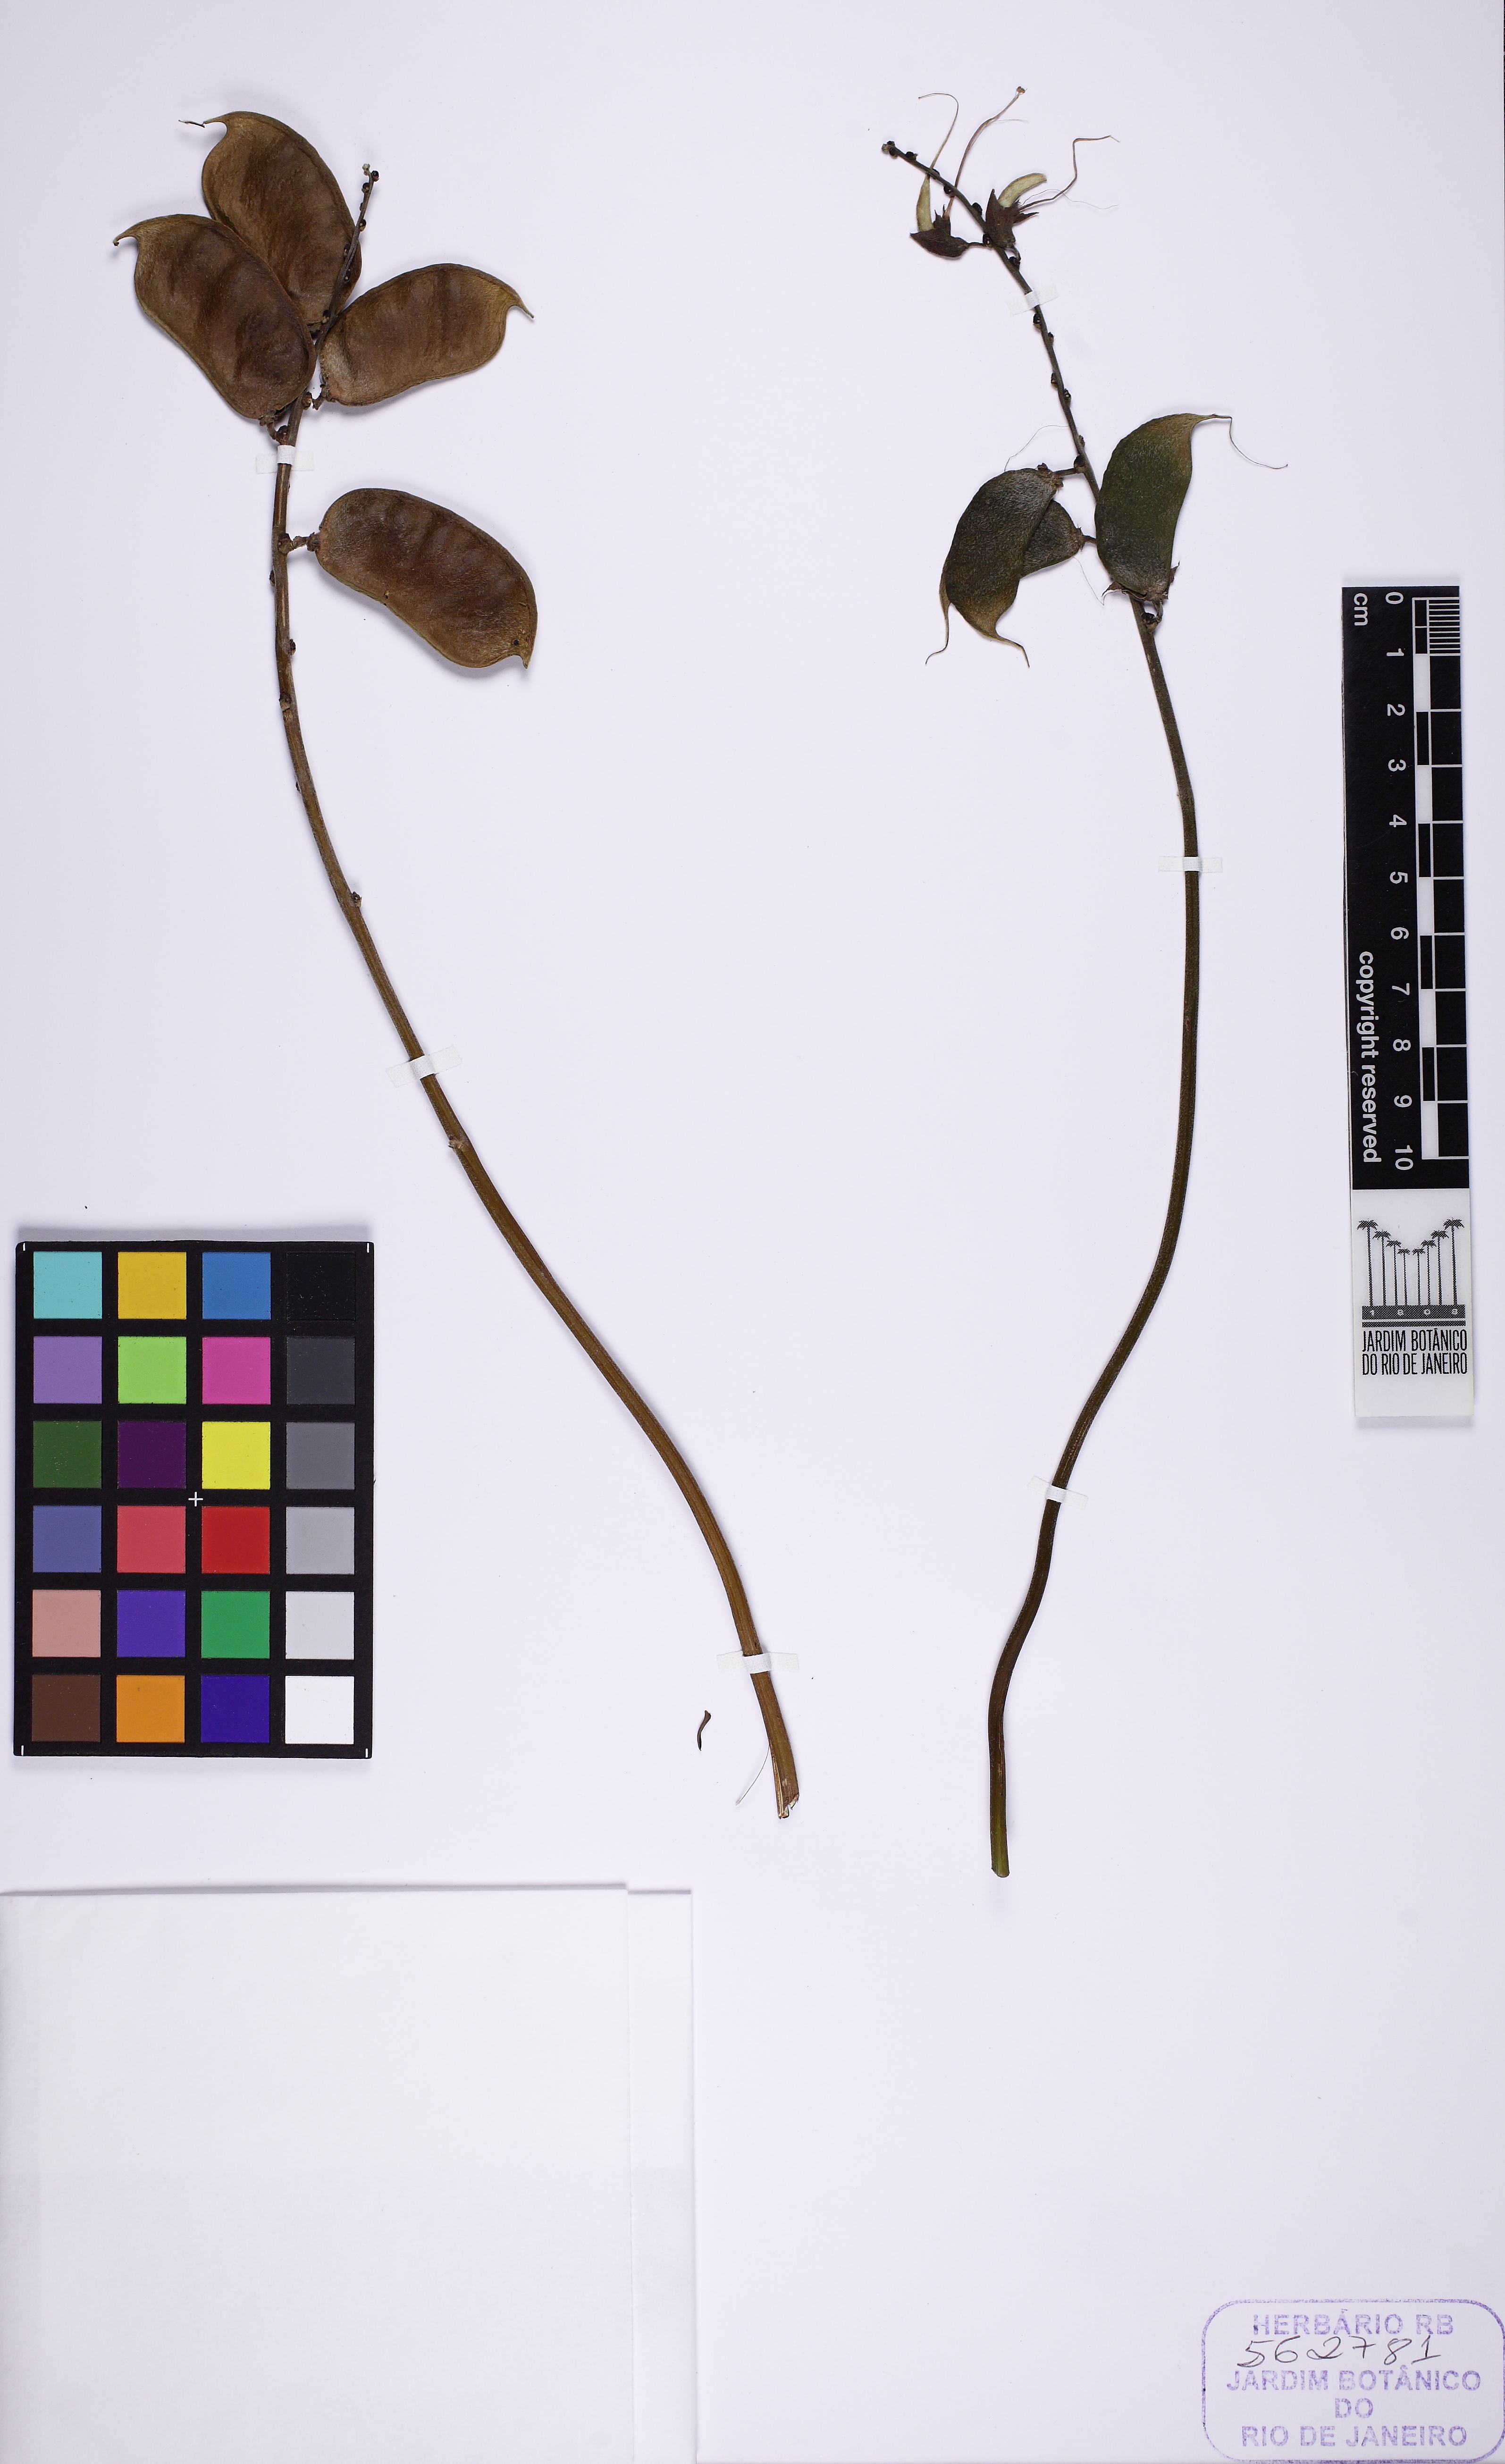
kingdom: Plantae
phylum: Tracheophyta
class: Magnoliopsida
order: Fabales
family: Fabaceae
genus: Cymbosema
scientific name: Cymbosema roseum
